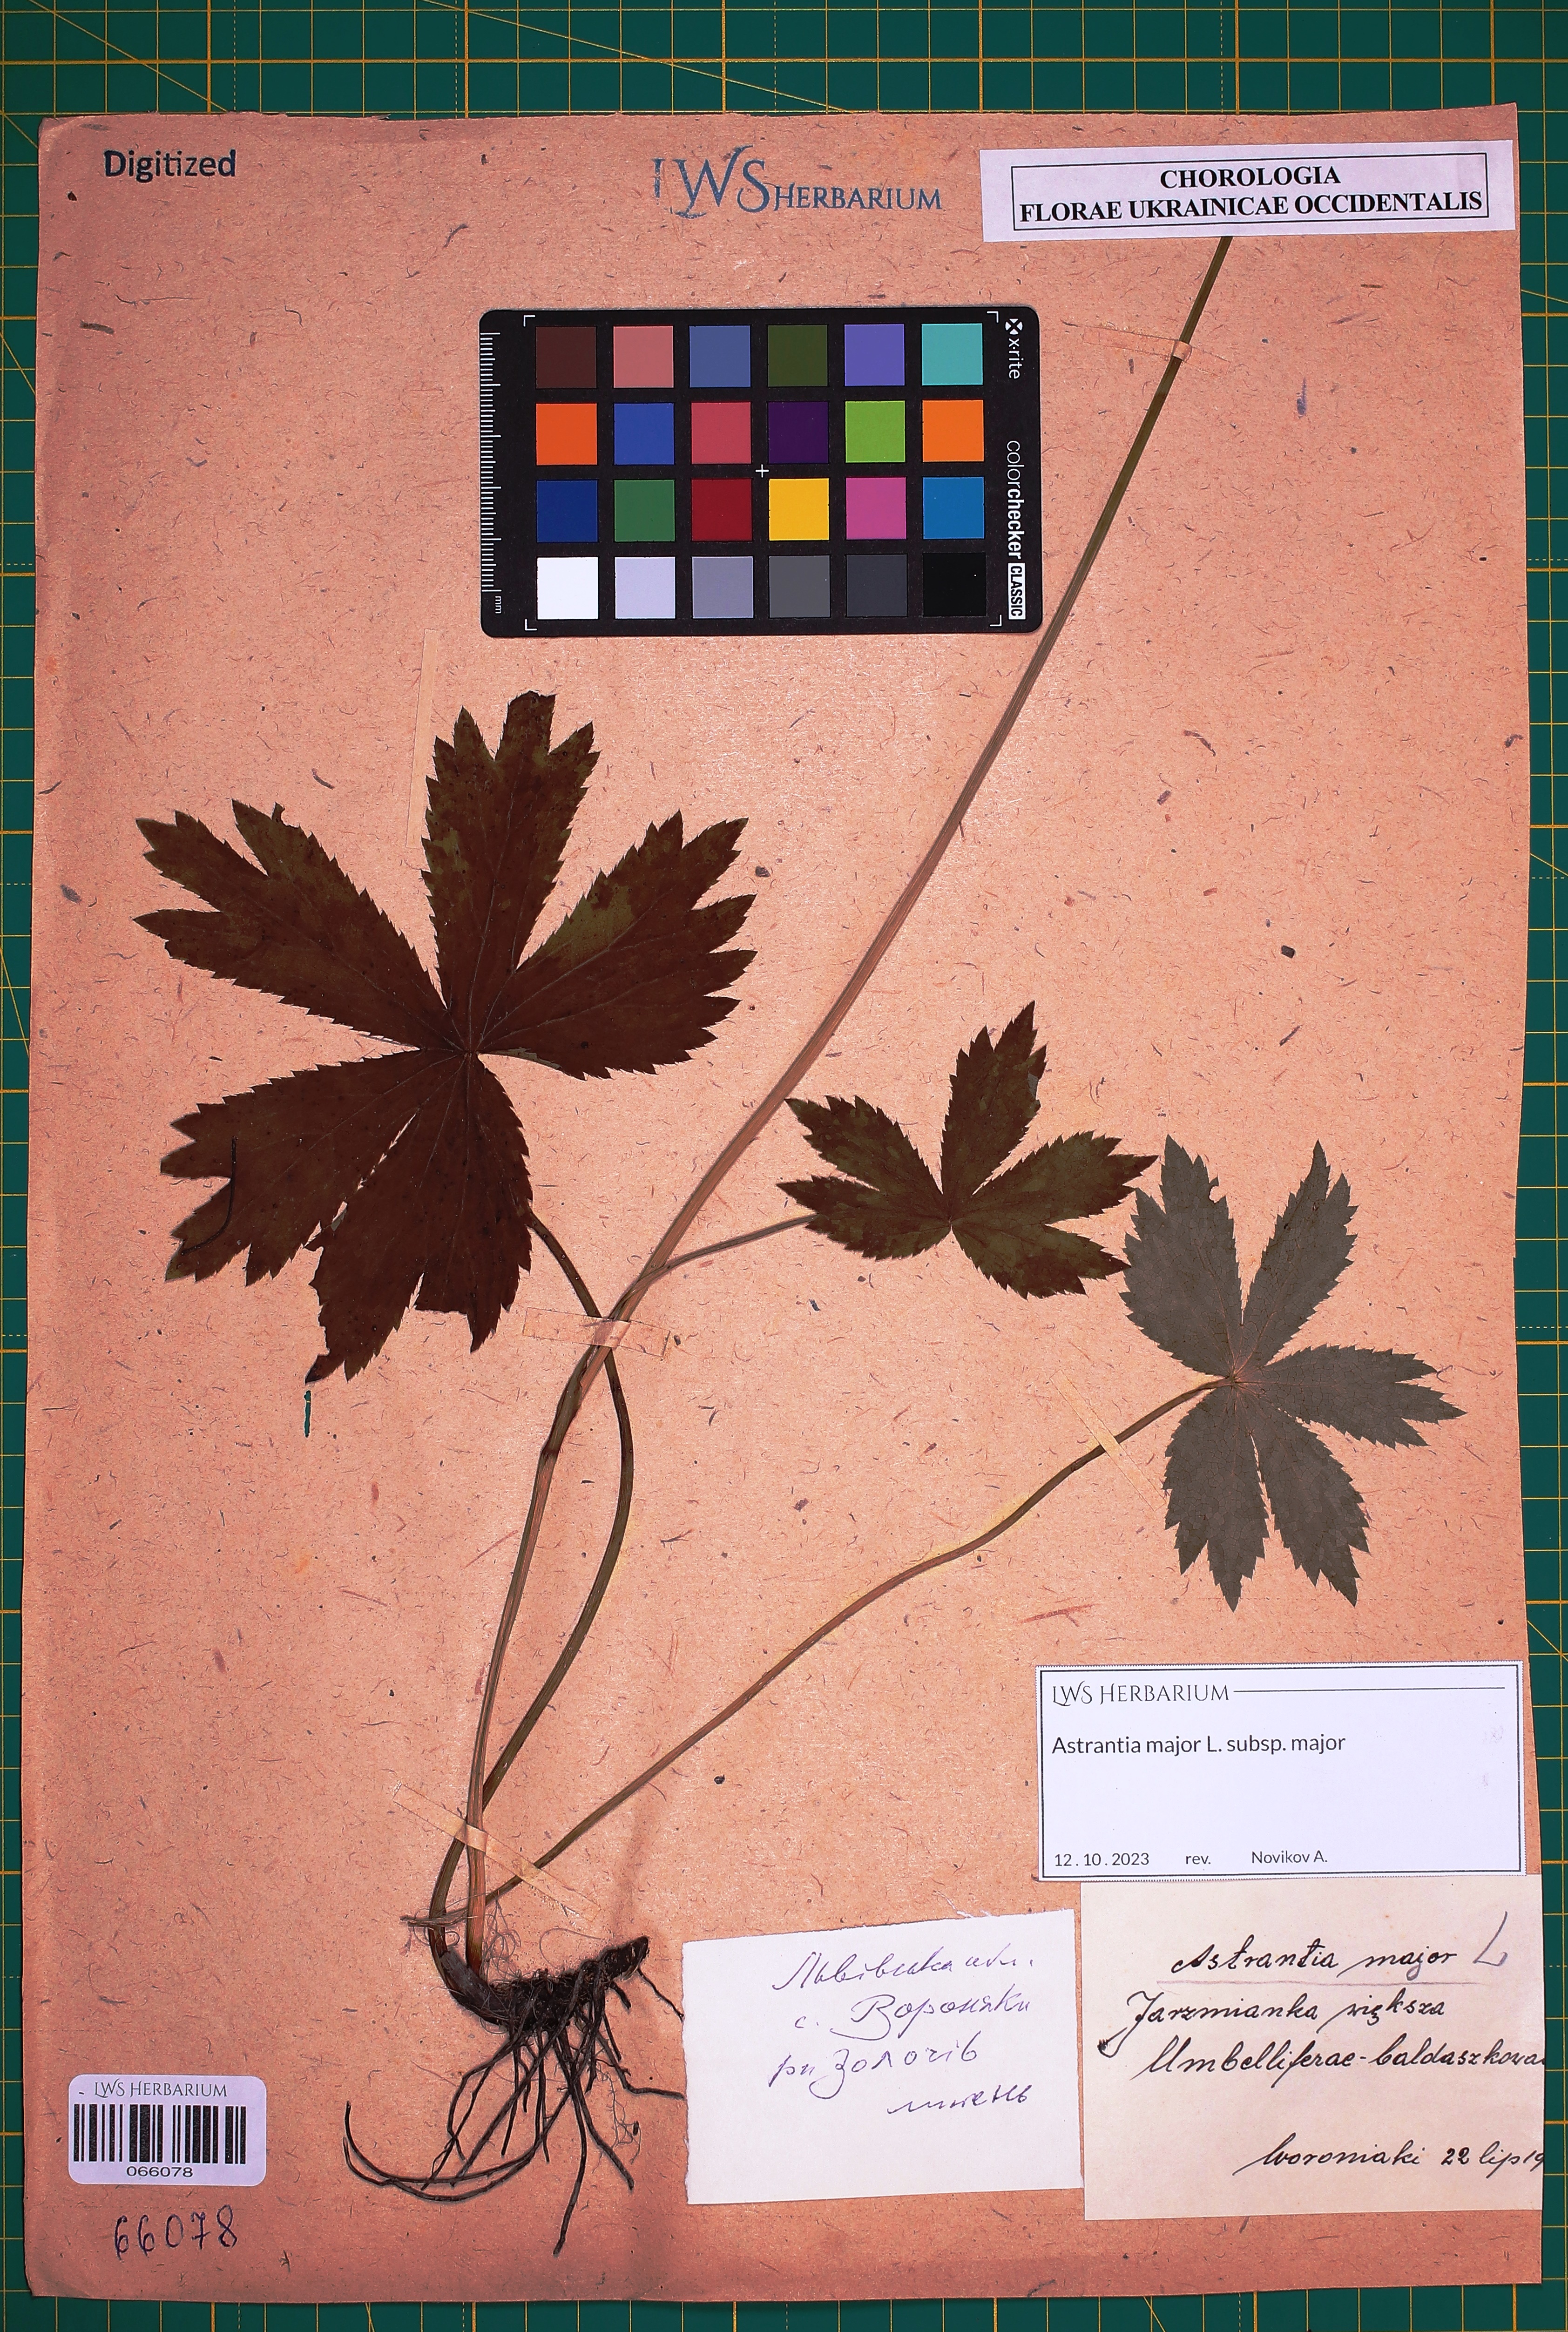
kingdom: Plantae
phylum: Tracheophyta
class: Magnoliopsida
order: Apiales
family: Apiaceae
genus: Astrantia
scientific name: Astrantia major
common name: Greater masterwort
